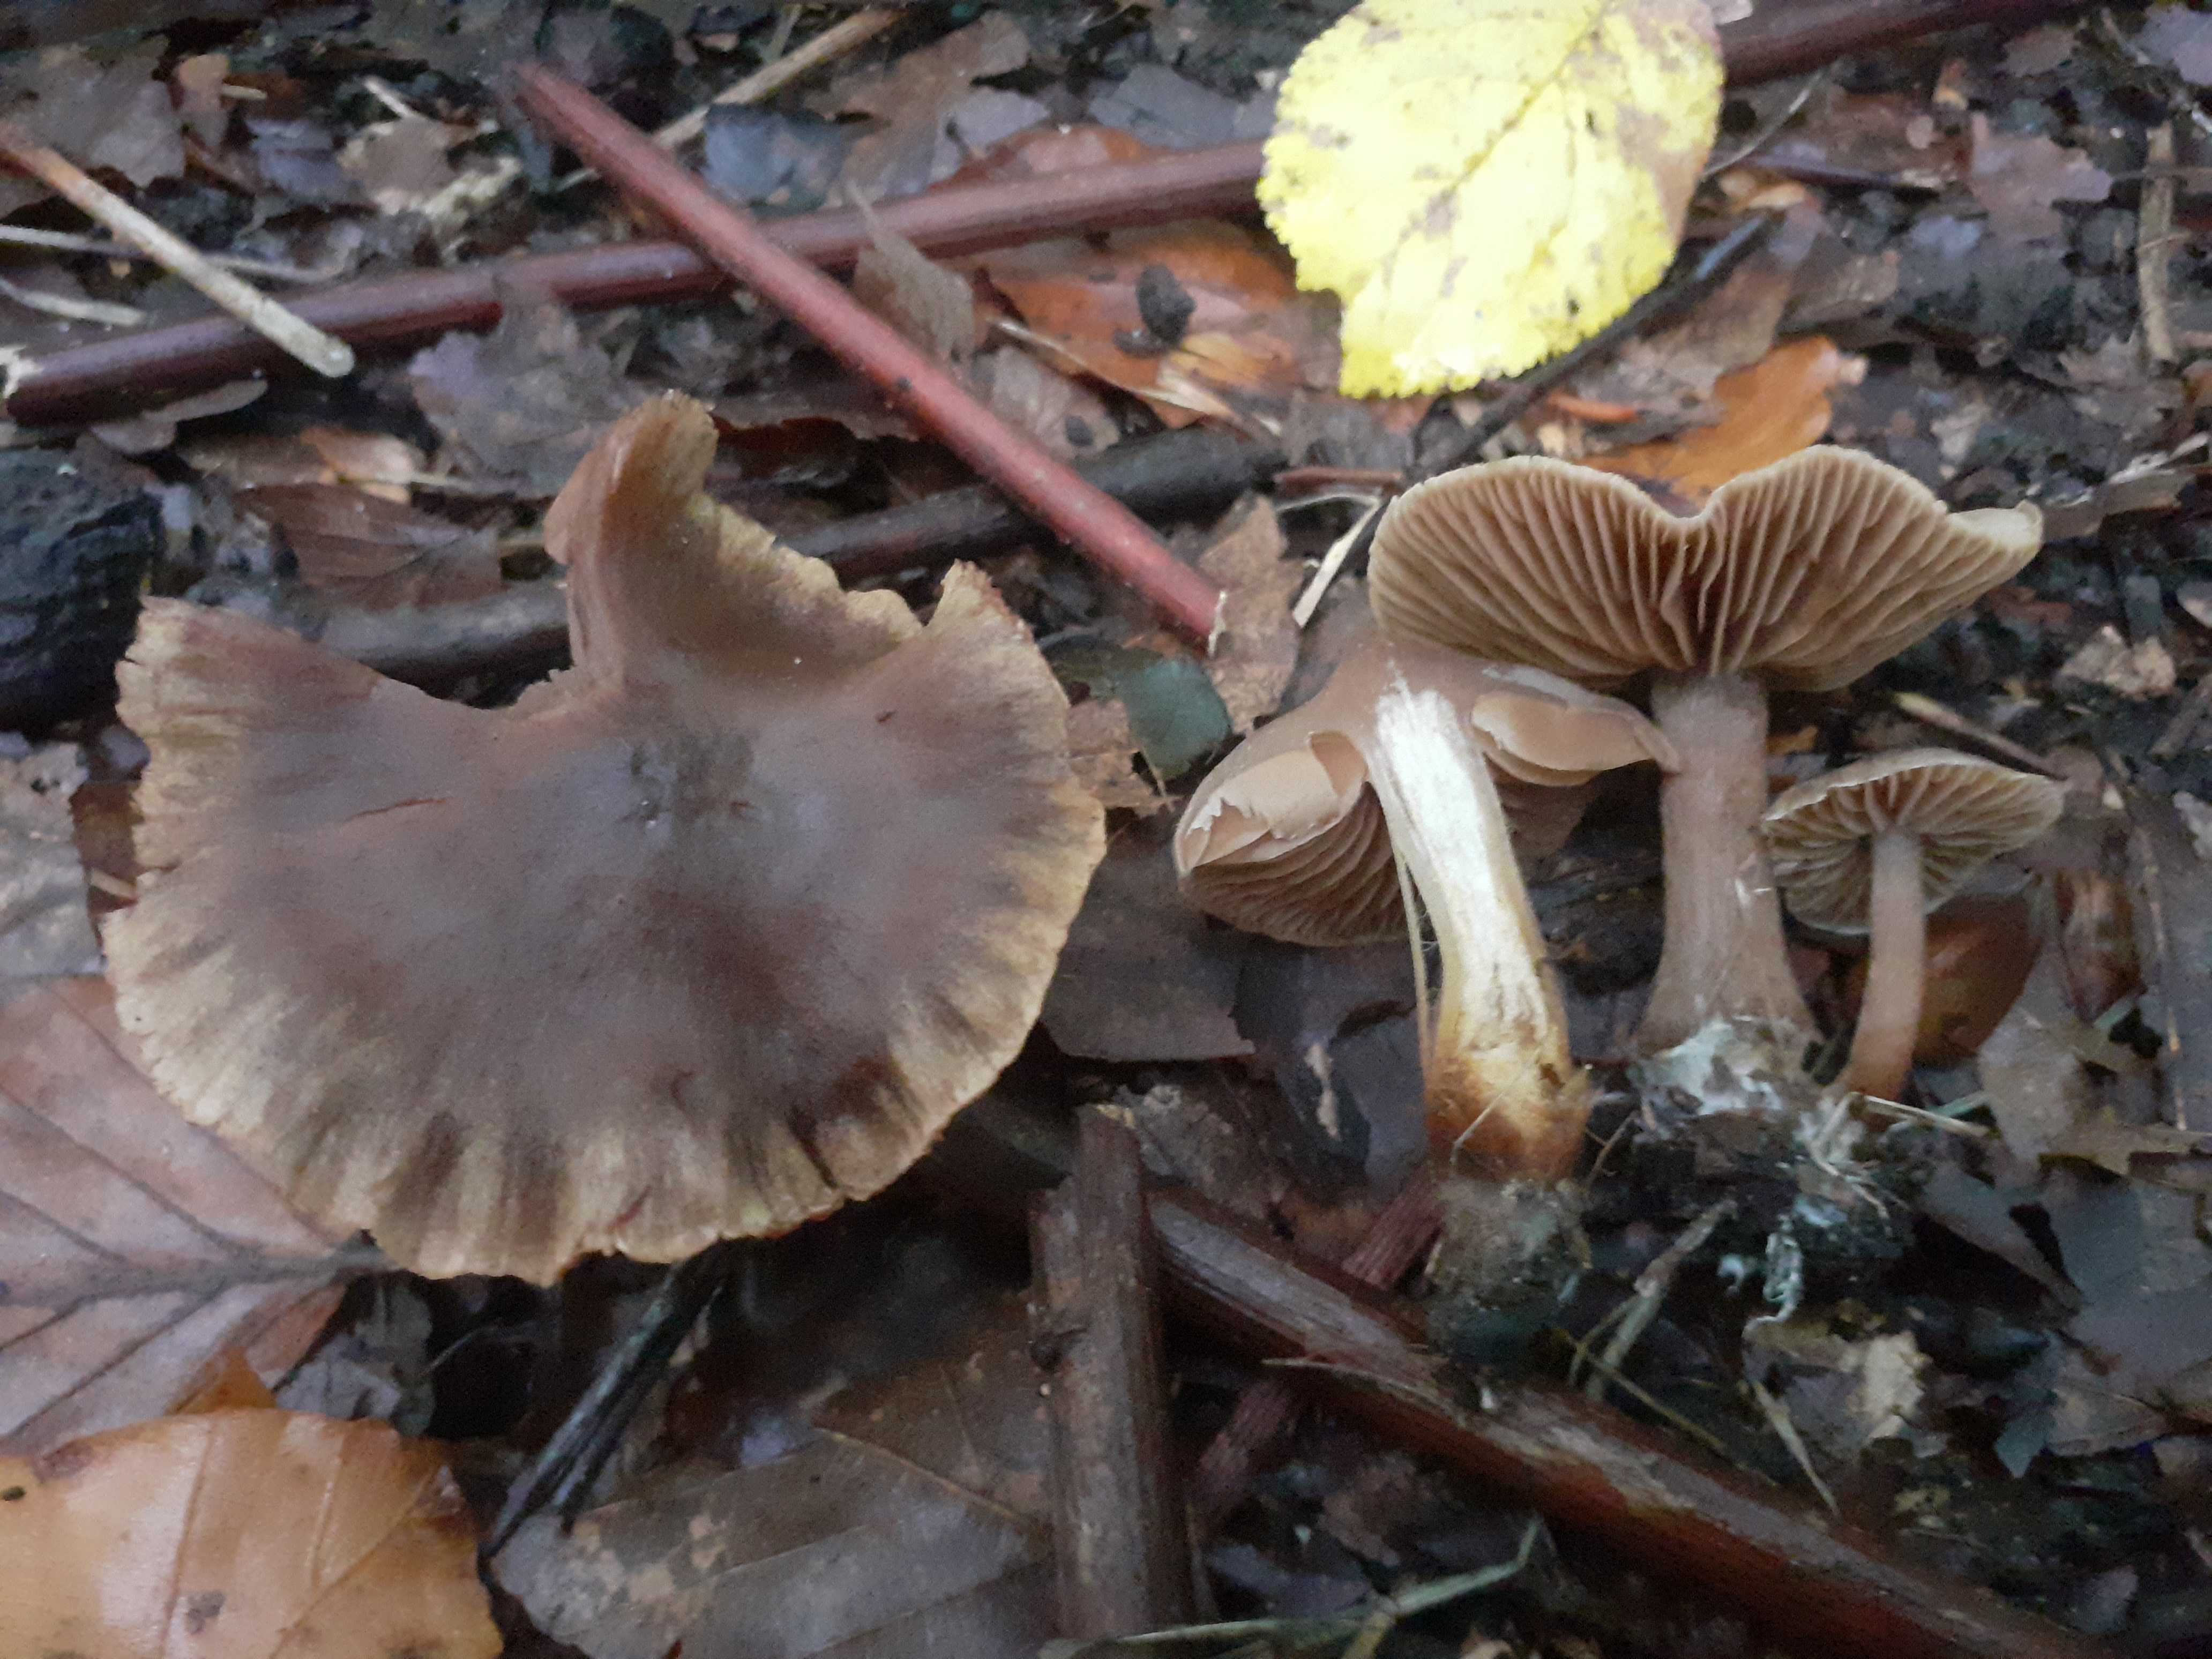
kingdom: Fungi
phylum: Basidiomycota
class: Agaricomycetes
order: Agaricales
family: Cortinariaceae
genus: Cortinarius
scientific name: Cortinarius
